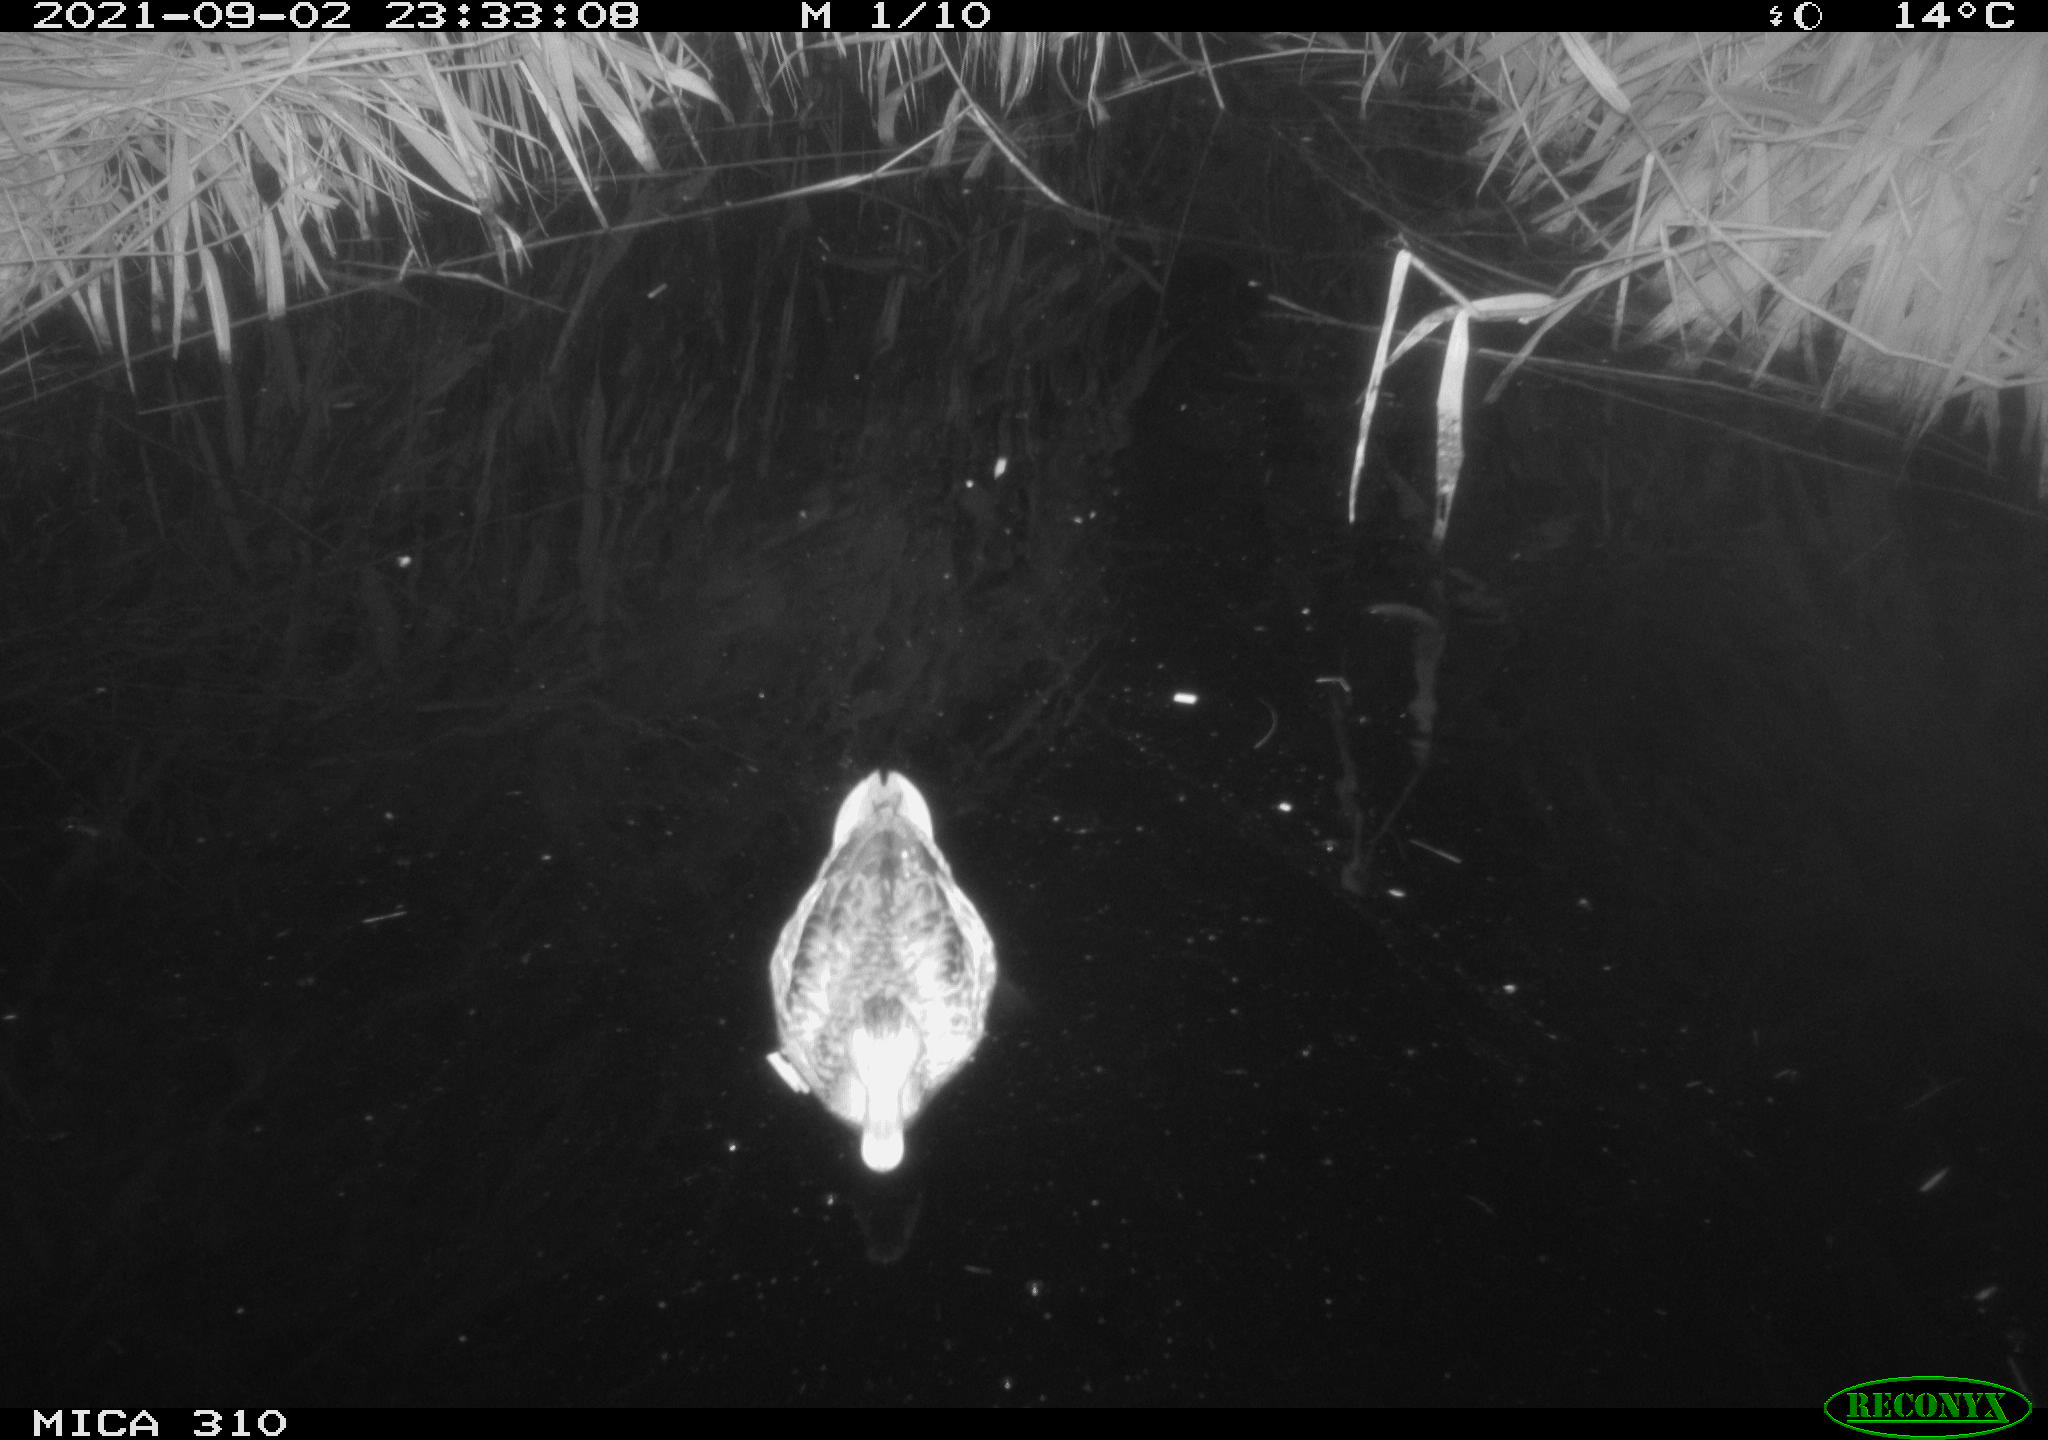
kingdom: Animalia
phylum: Chordata
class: Aves
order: Anseriformes
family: Anatidae
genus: Anas
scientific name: Anas platyrhynchos
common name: Mallard
